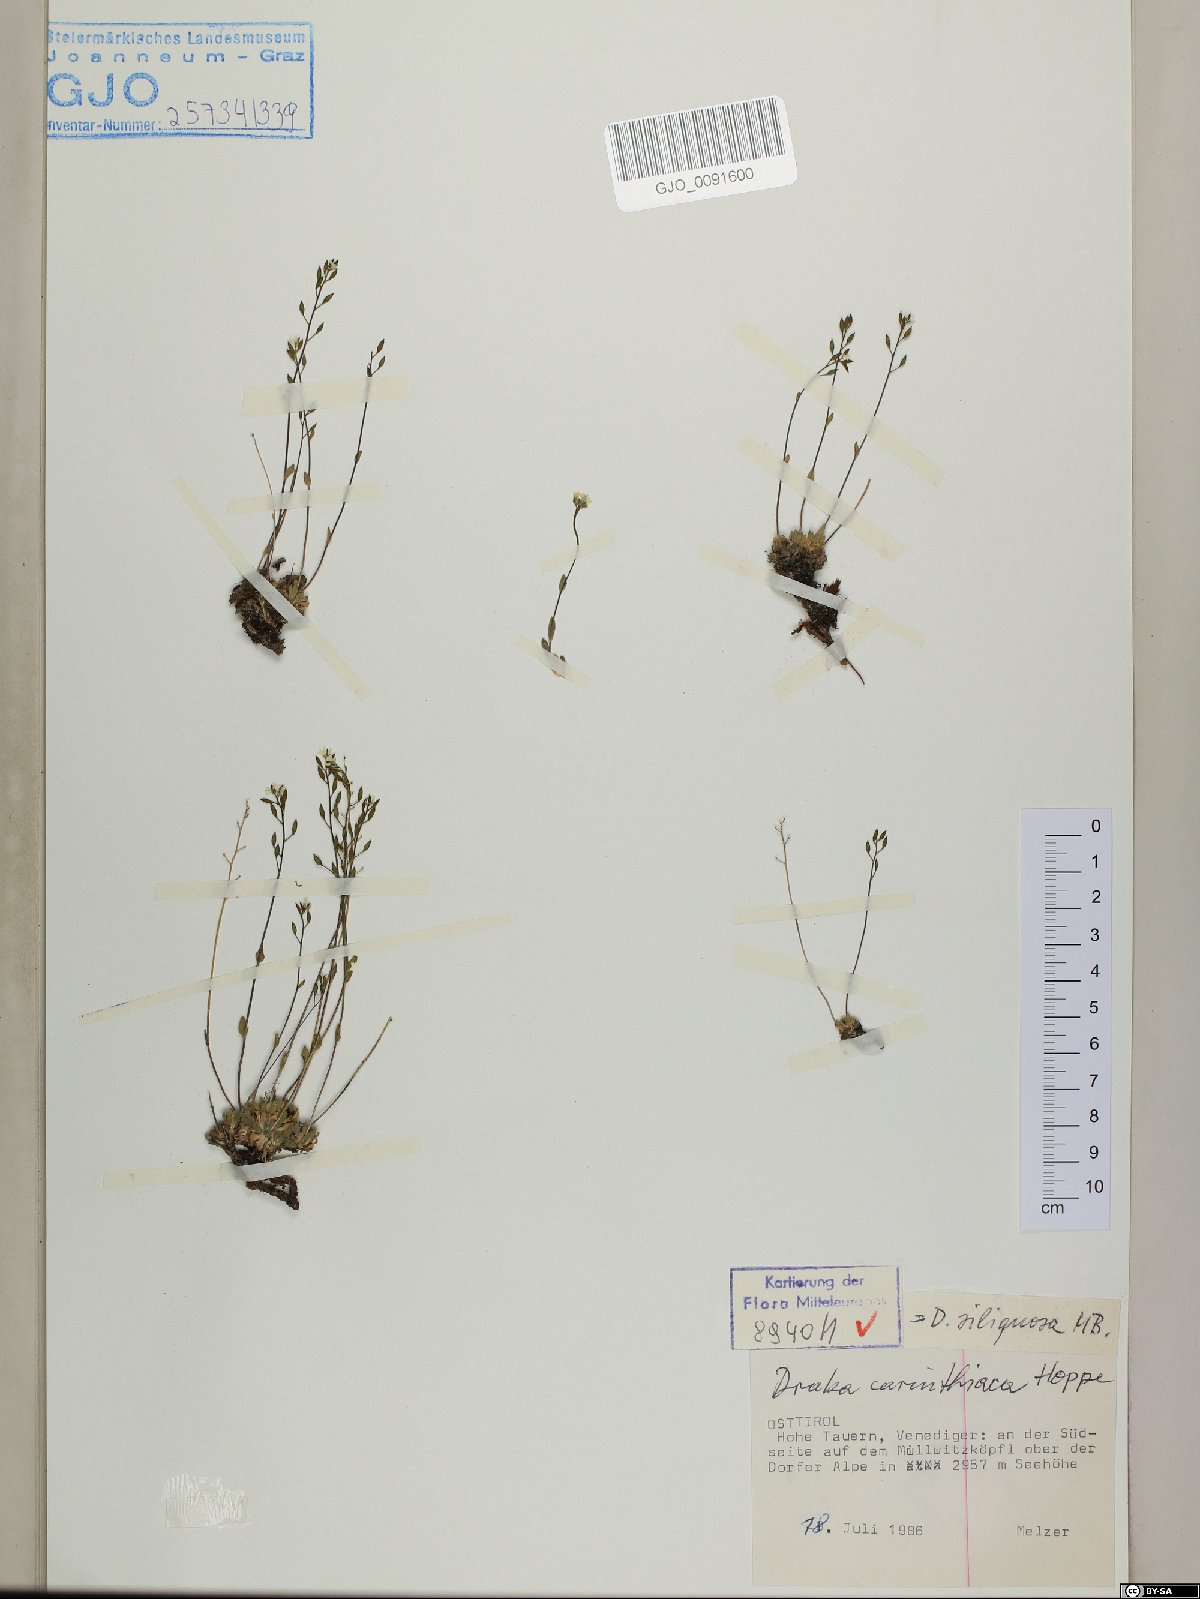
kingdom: Plantae
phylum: Tracheophyta
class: Magnoliopsida
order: Brassicales
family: Brassicaceae
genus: Draba
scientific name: Draba siliquosa
